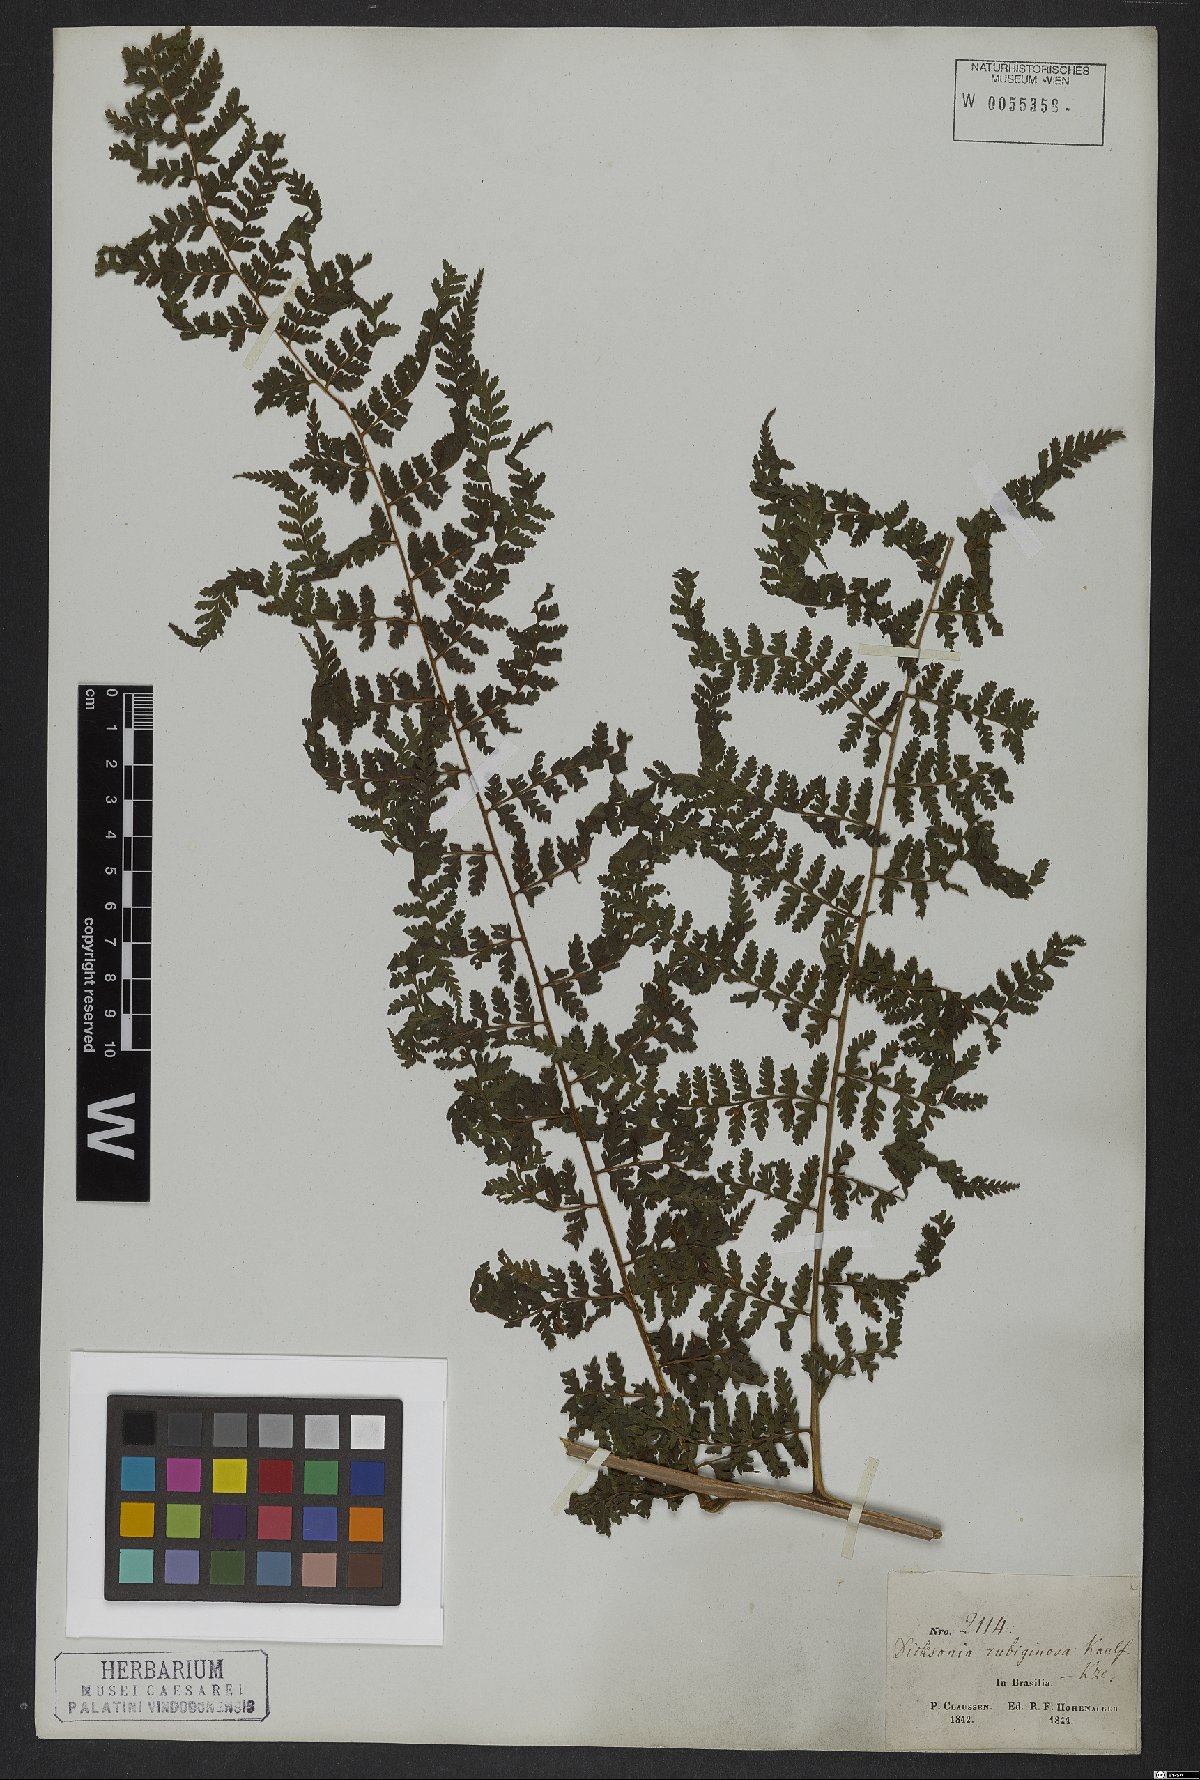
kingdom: Plantae
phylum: Tracheophyta
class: Polypodiopsida
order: Polypodiales
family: Dennstaedtiaceae
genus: Dennstaedtia
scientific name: Dennstaedtia cicutaria
